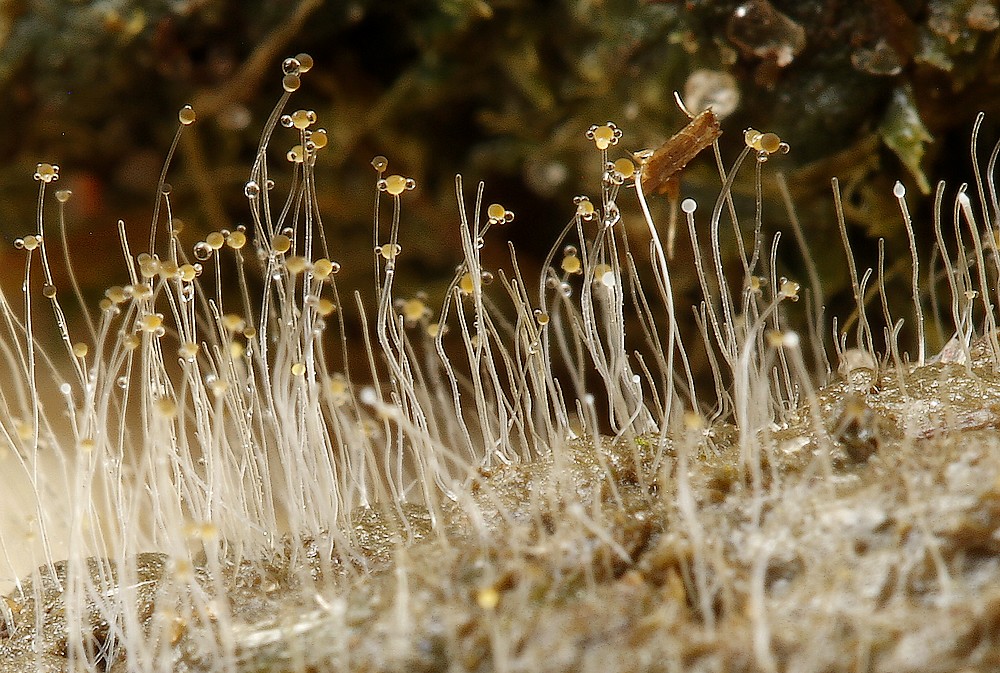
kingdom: Fungi
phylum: Mucoromycota
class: Mucoromycetes
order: Mucorales
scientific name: Mucorales
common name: mugordenen
